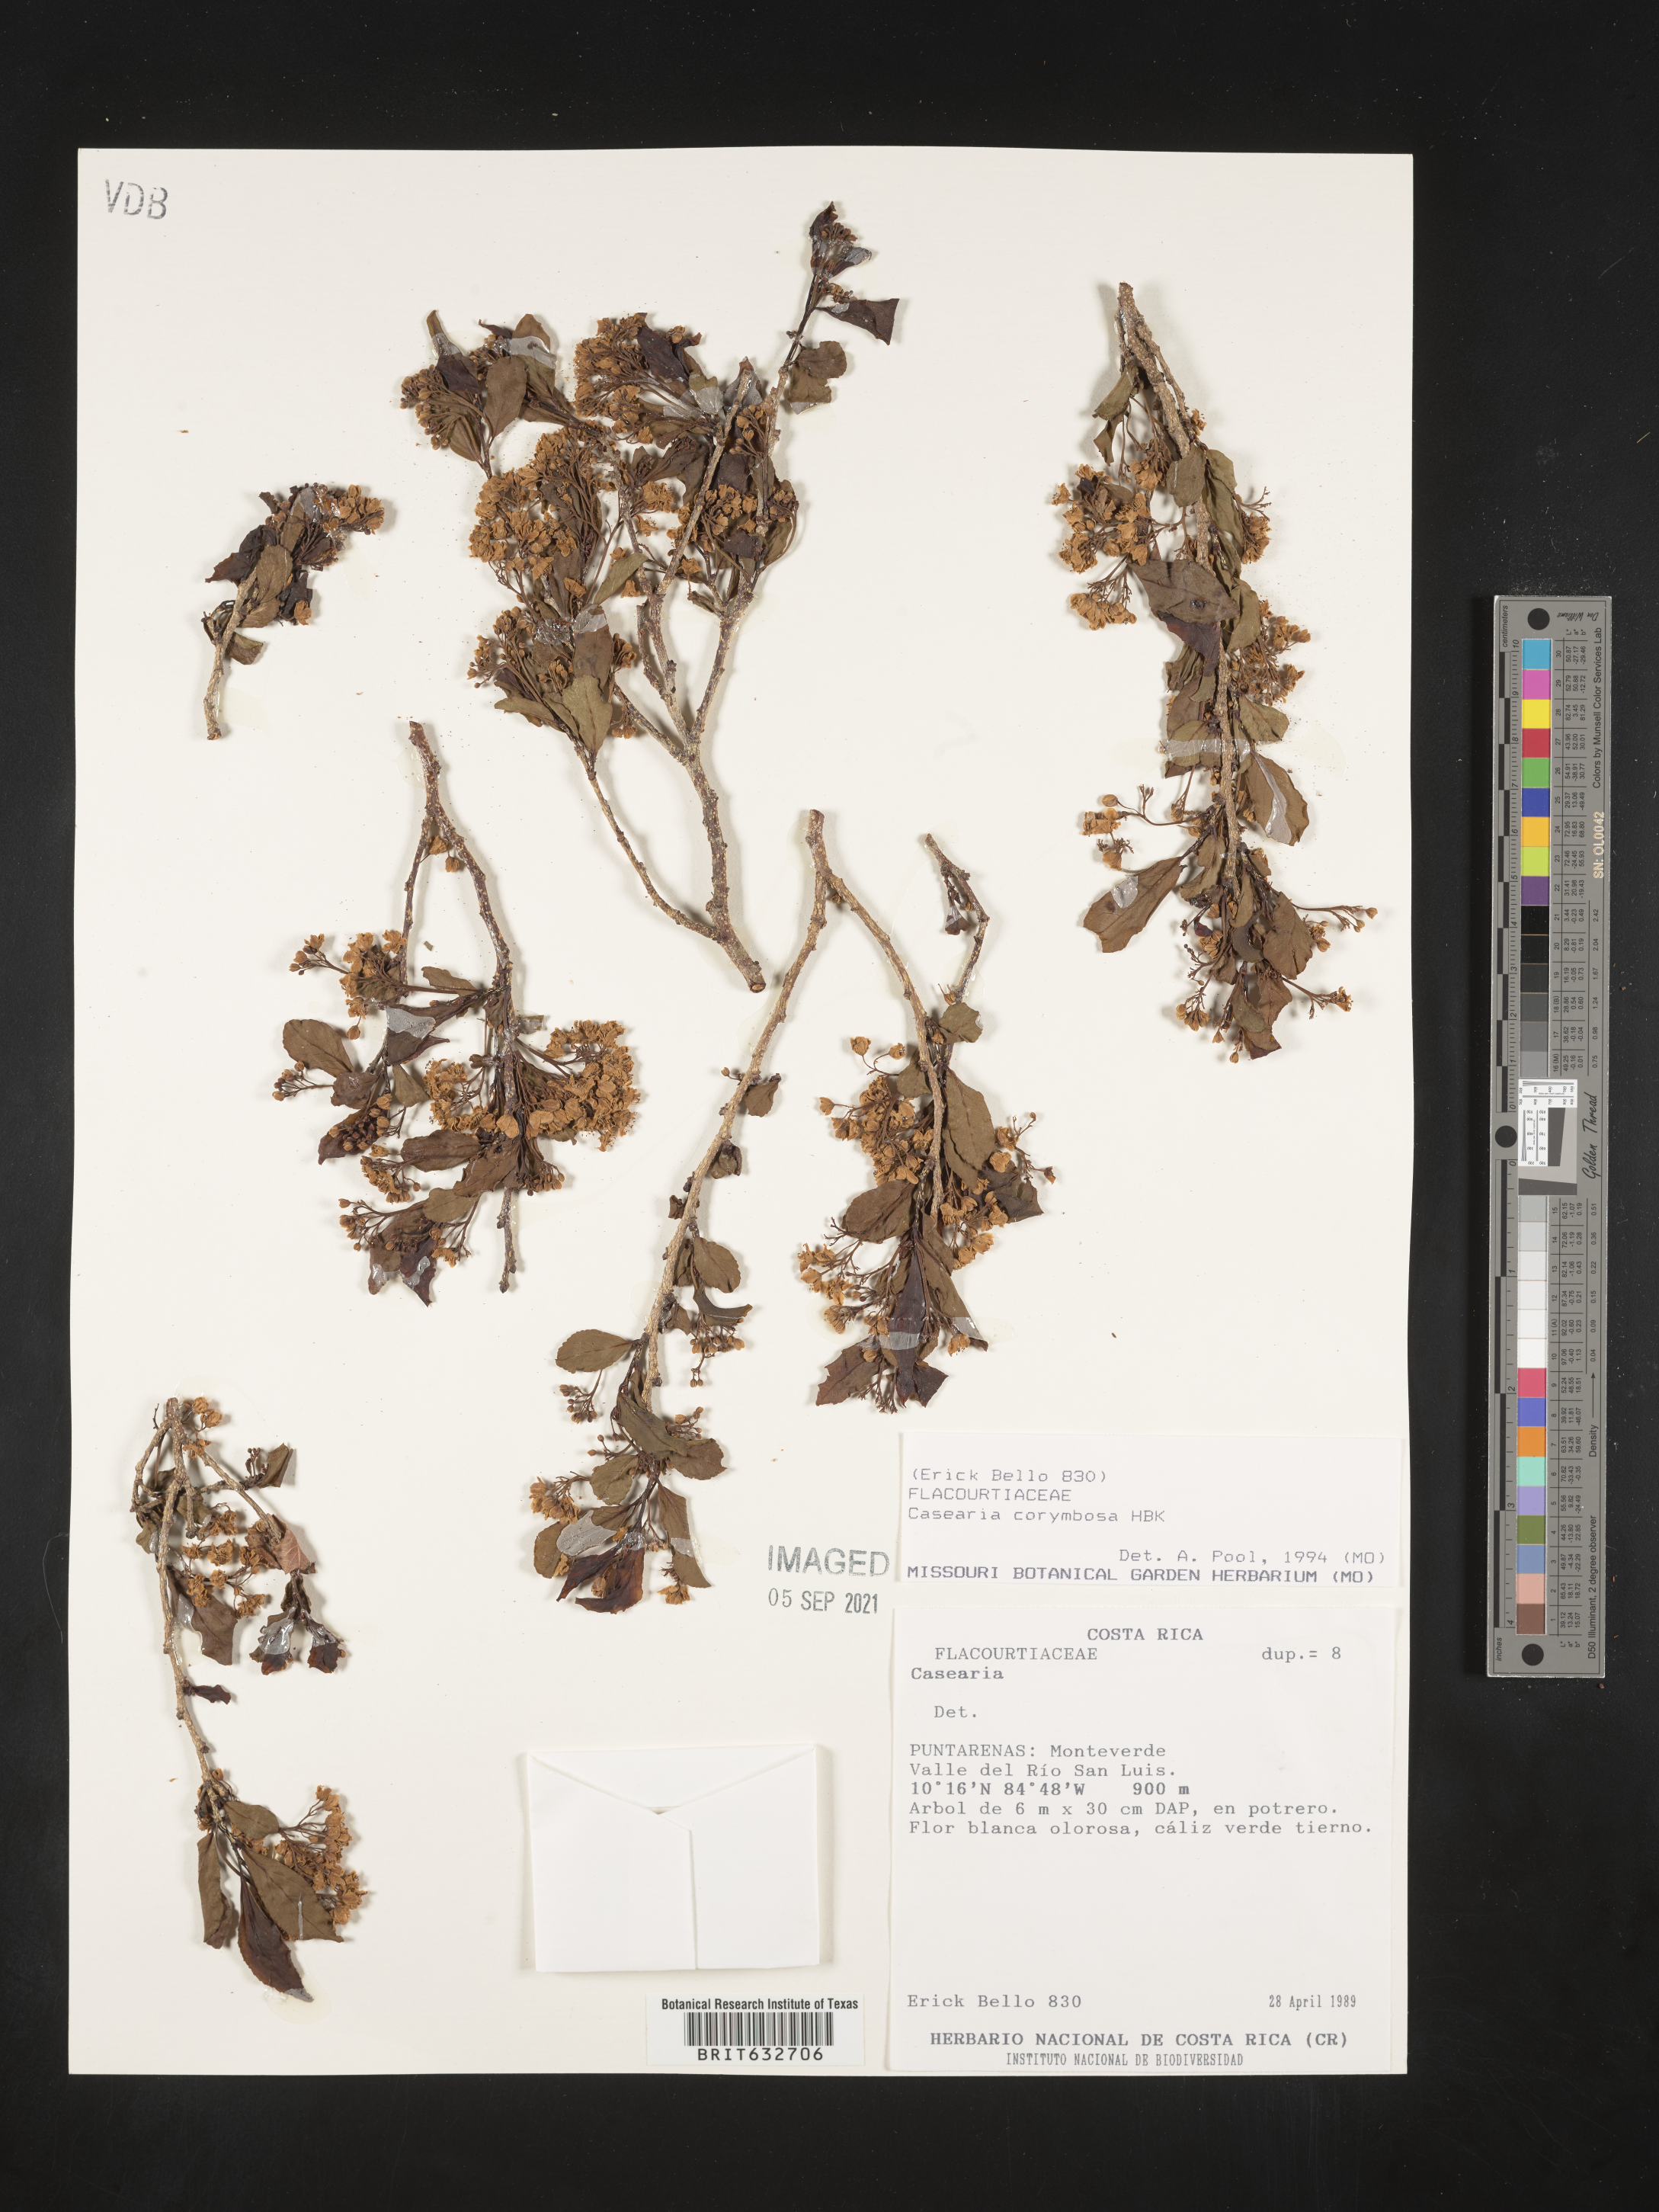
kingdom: Plantae
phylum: Tracheophyta
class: Magnoliopsida
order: Malpighiales
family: Salicaceae
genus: Casearia
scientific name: Casearia
